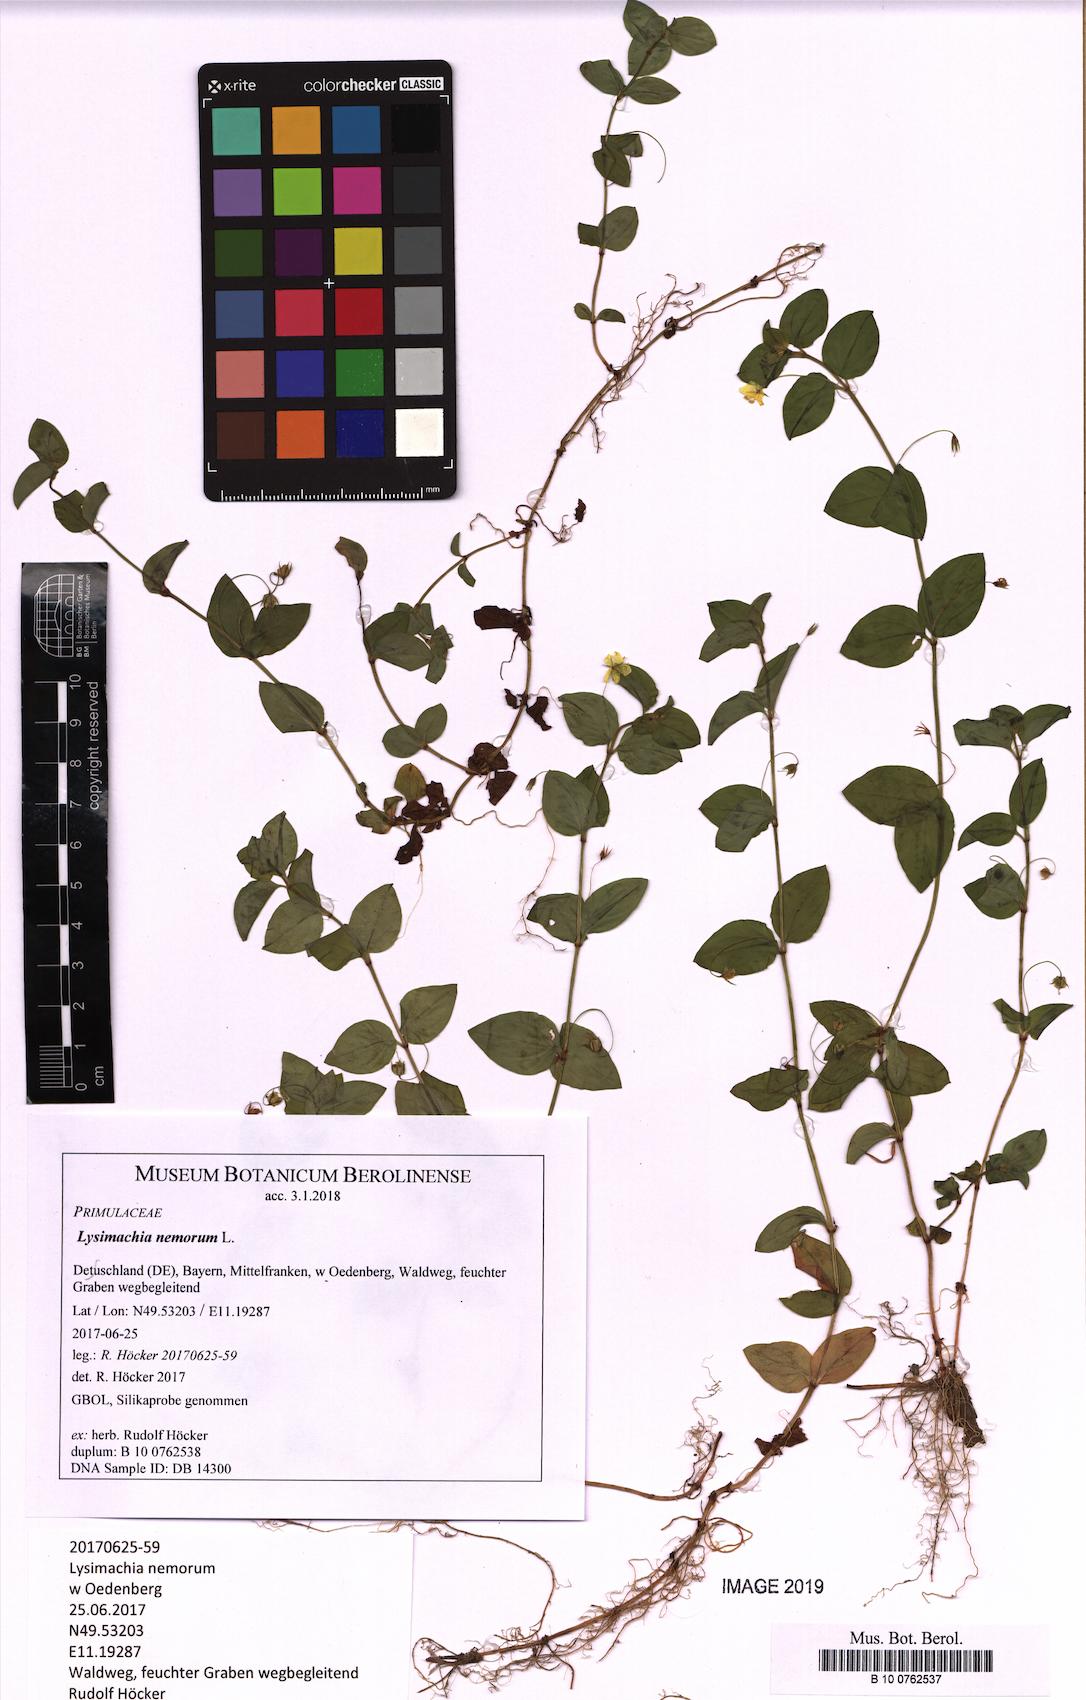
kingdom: Plantae
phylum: Tracheophyta
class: Magnoliopsida
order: Ericales
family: Primulaceae
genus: Lysimachia
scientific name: Lysimachia nemorum
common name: Yellow pimpernel
